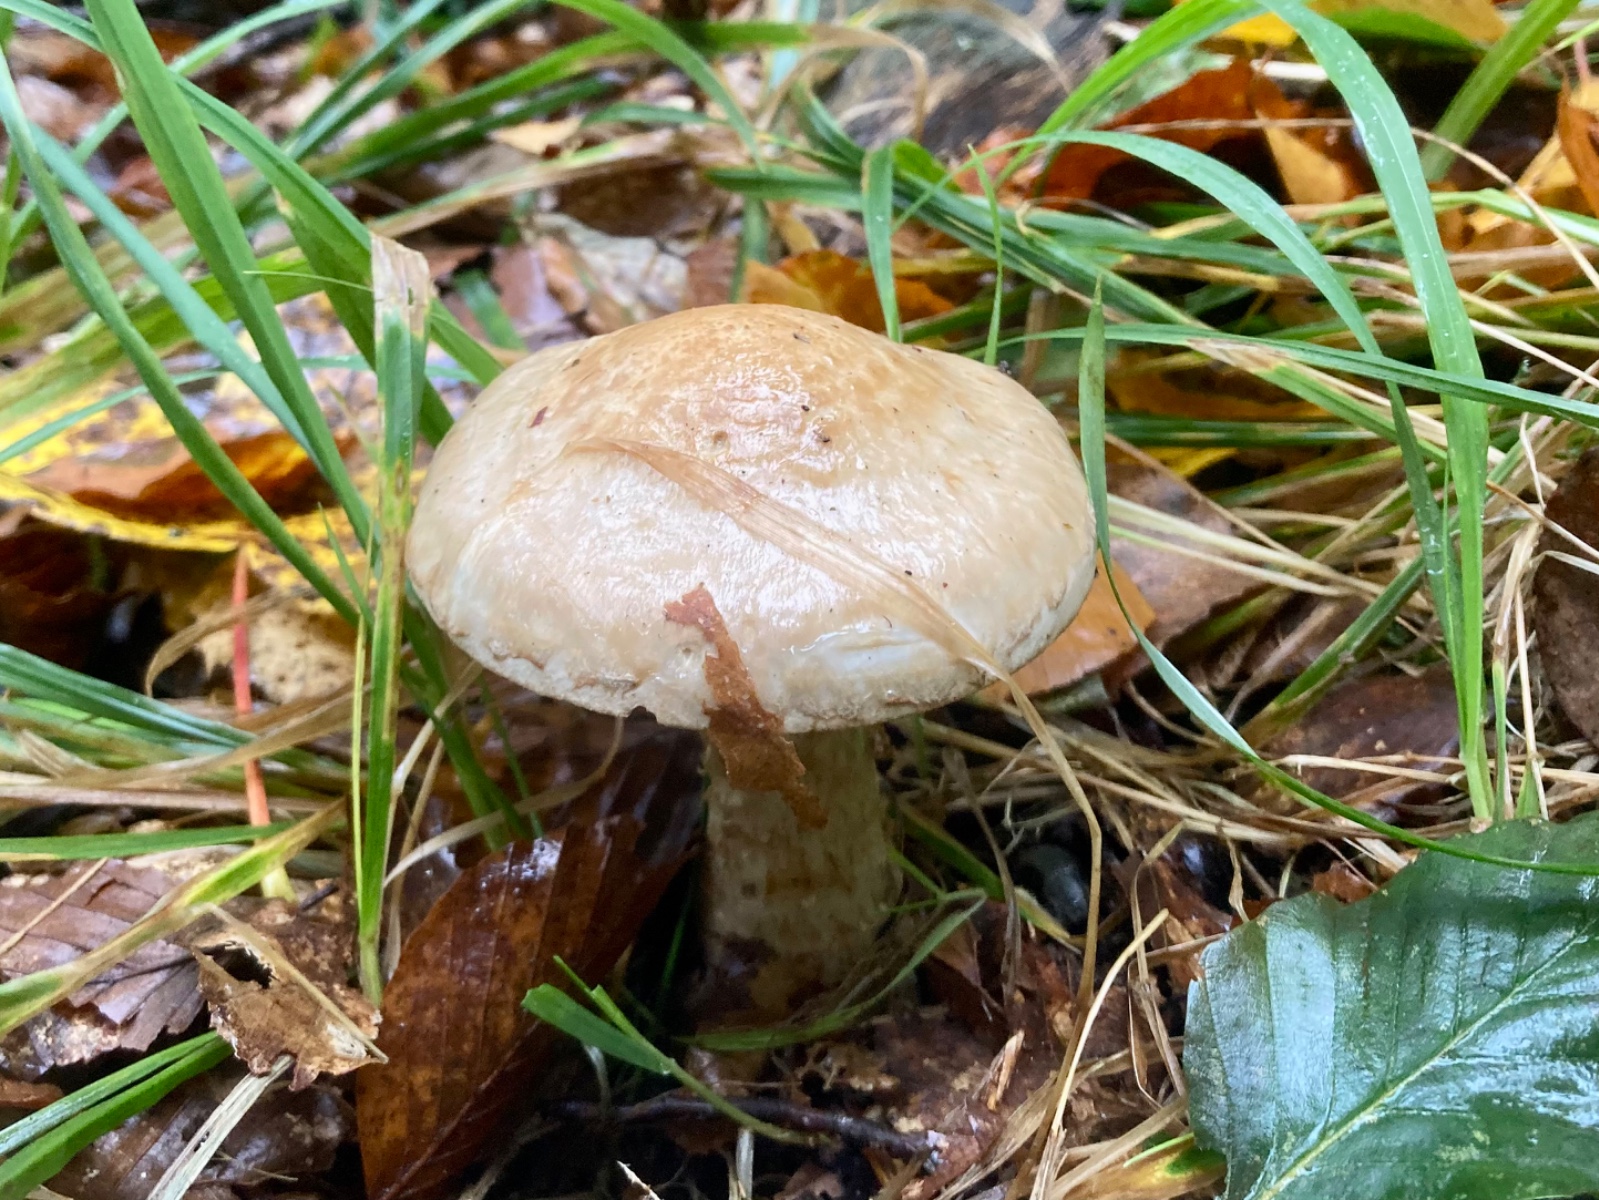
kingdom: Fungi
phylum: Basidiomycota
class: Agaricomycetes
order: Agaricales
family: Hymenogastraceae
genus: Hebeloma
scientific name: Hebeloma radicosum
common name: pælerods-tåreblad
